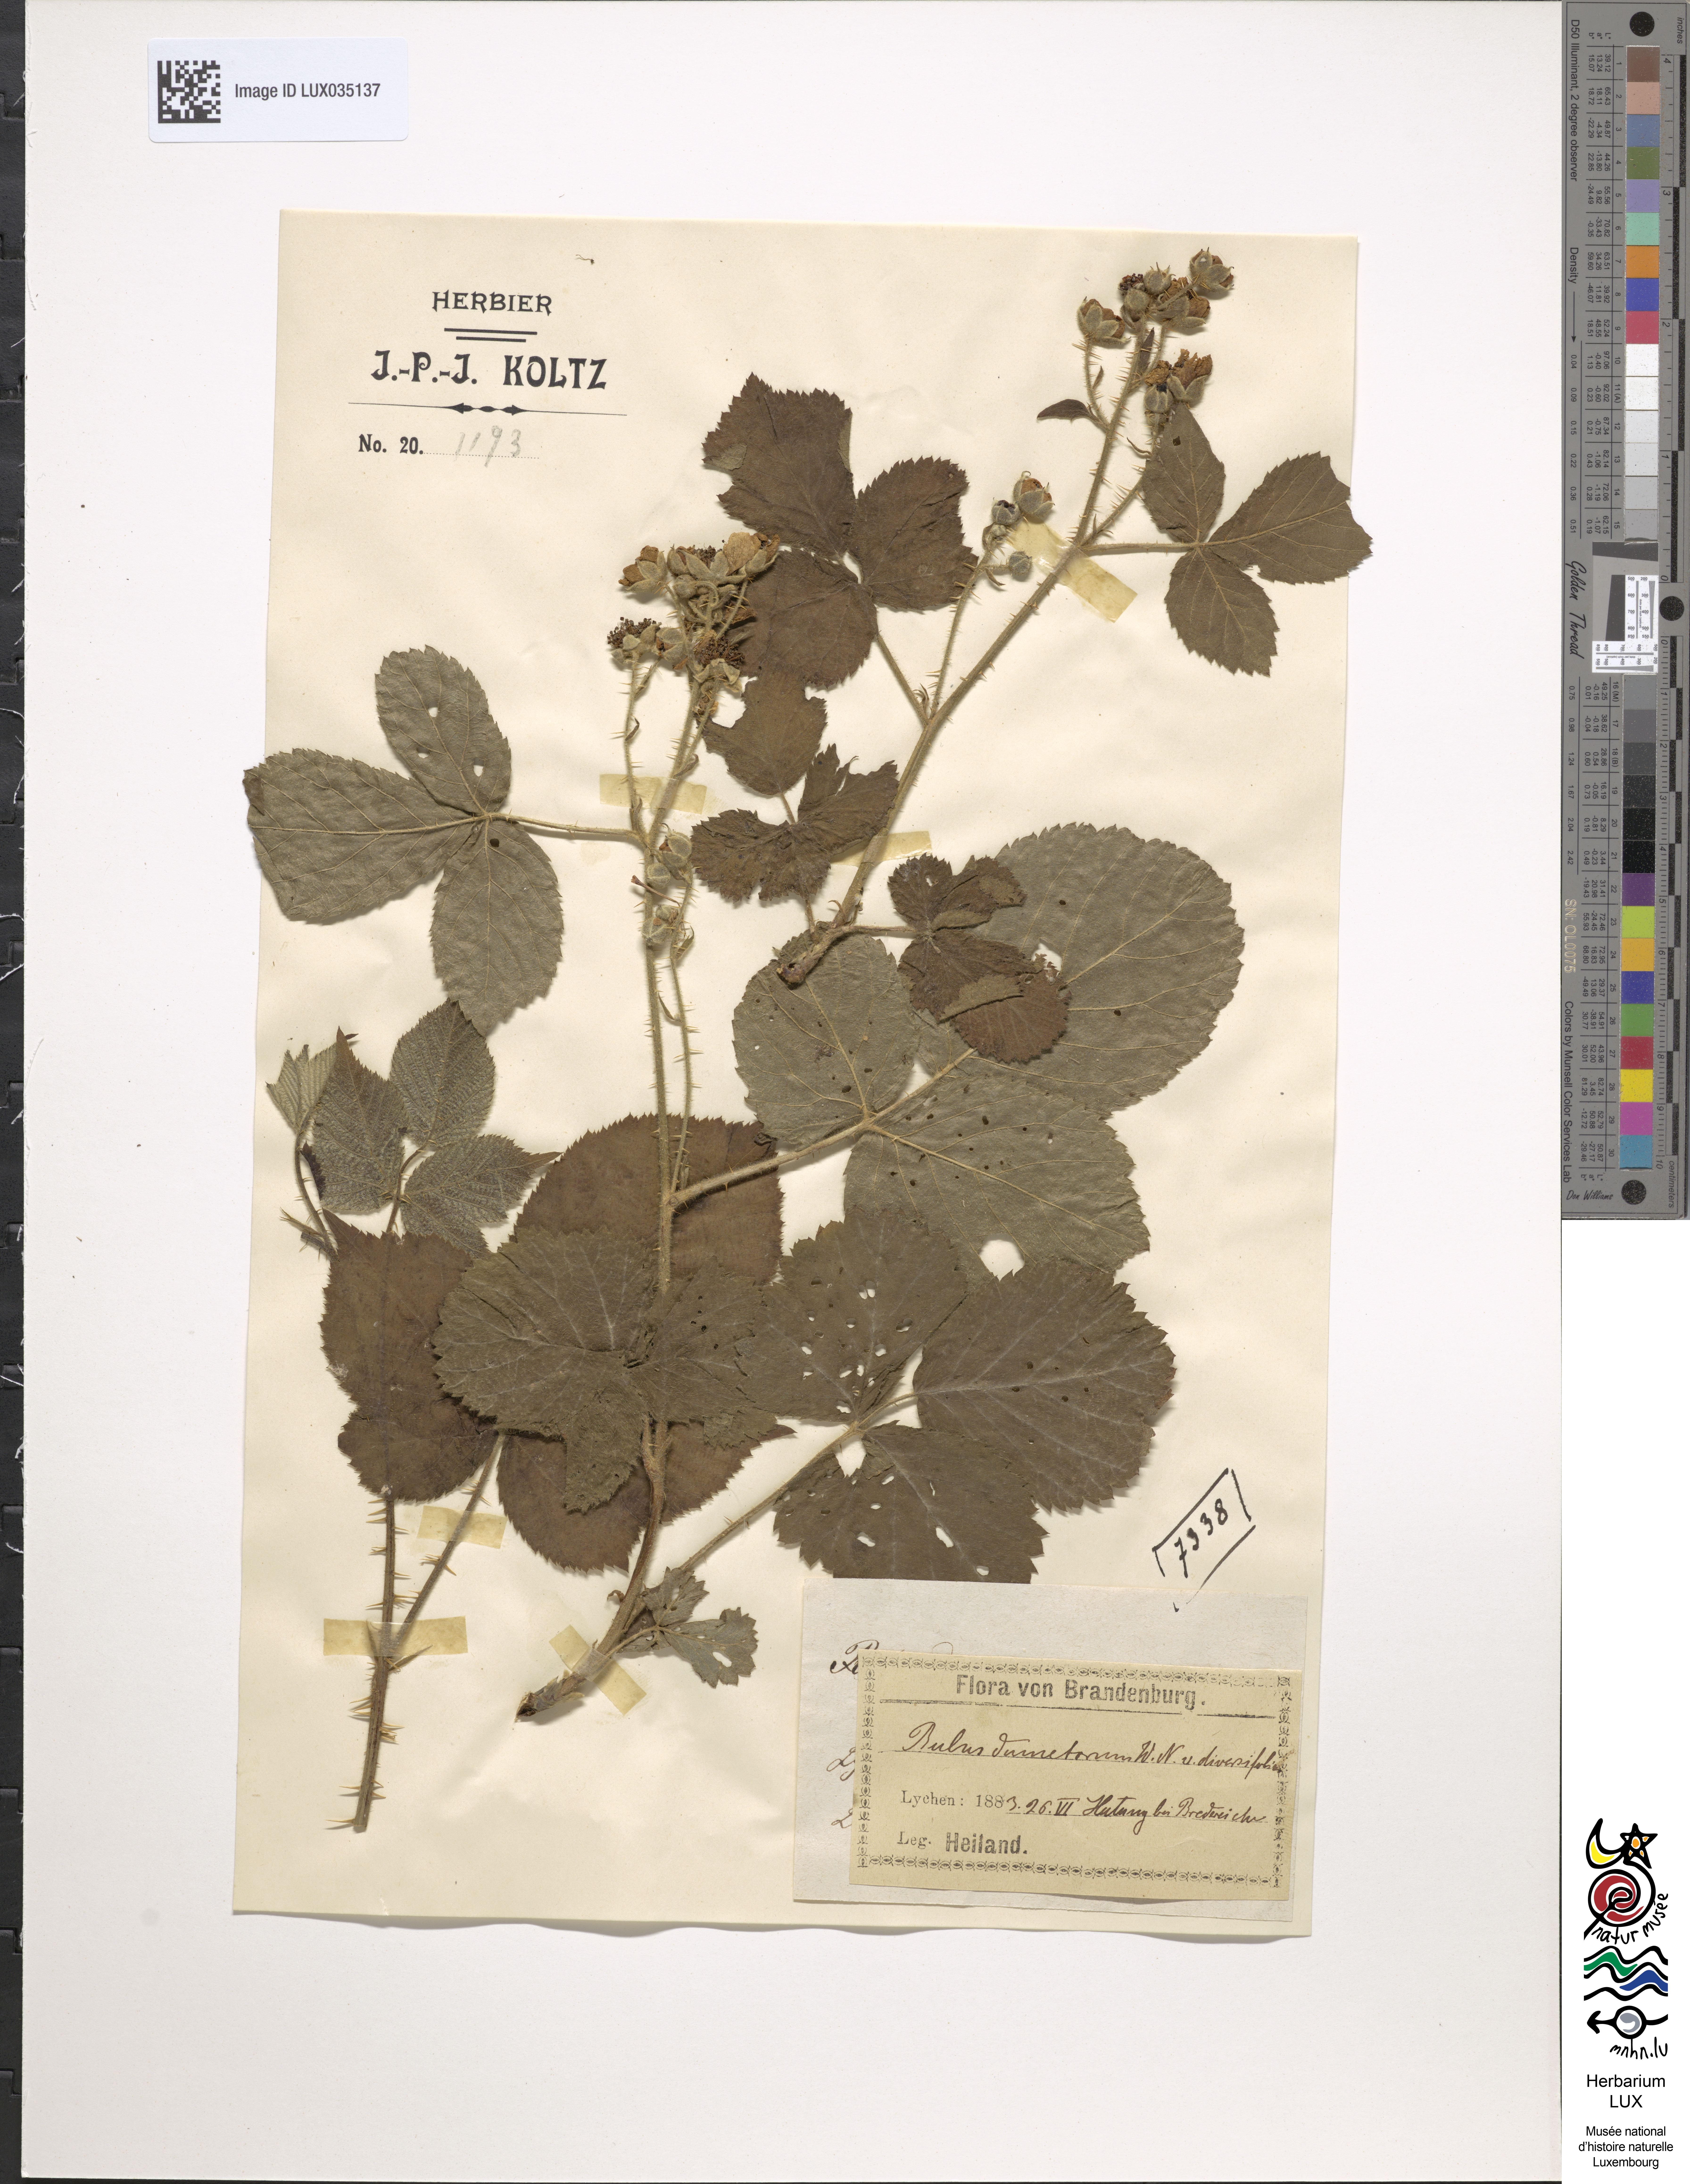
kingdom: Plantae
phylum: Tracheophyta
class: Magnoliopsida
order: Rosales
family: Rosaceae
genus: Rubus
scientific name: Rubus nemorosus
